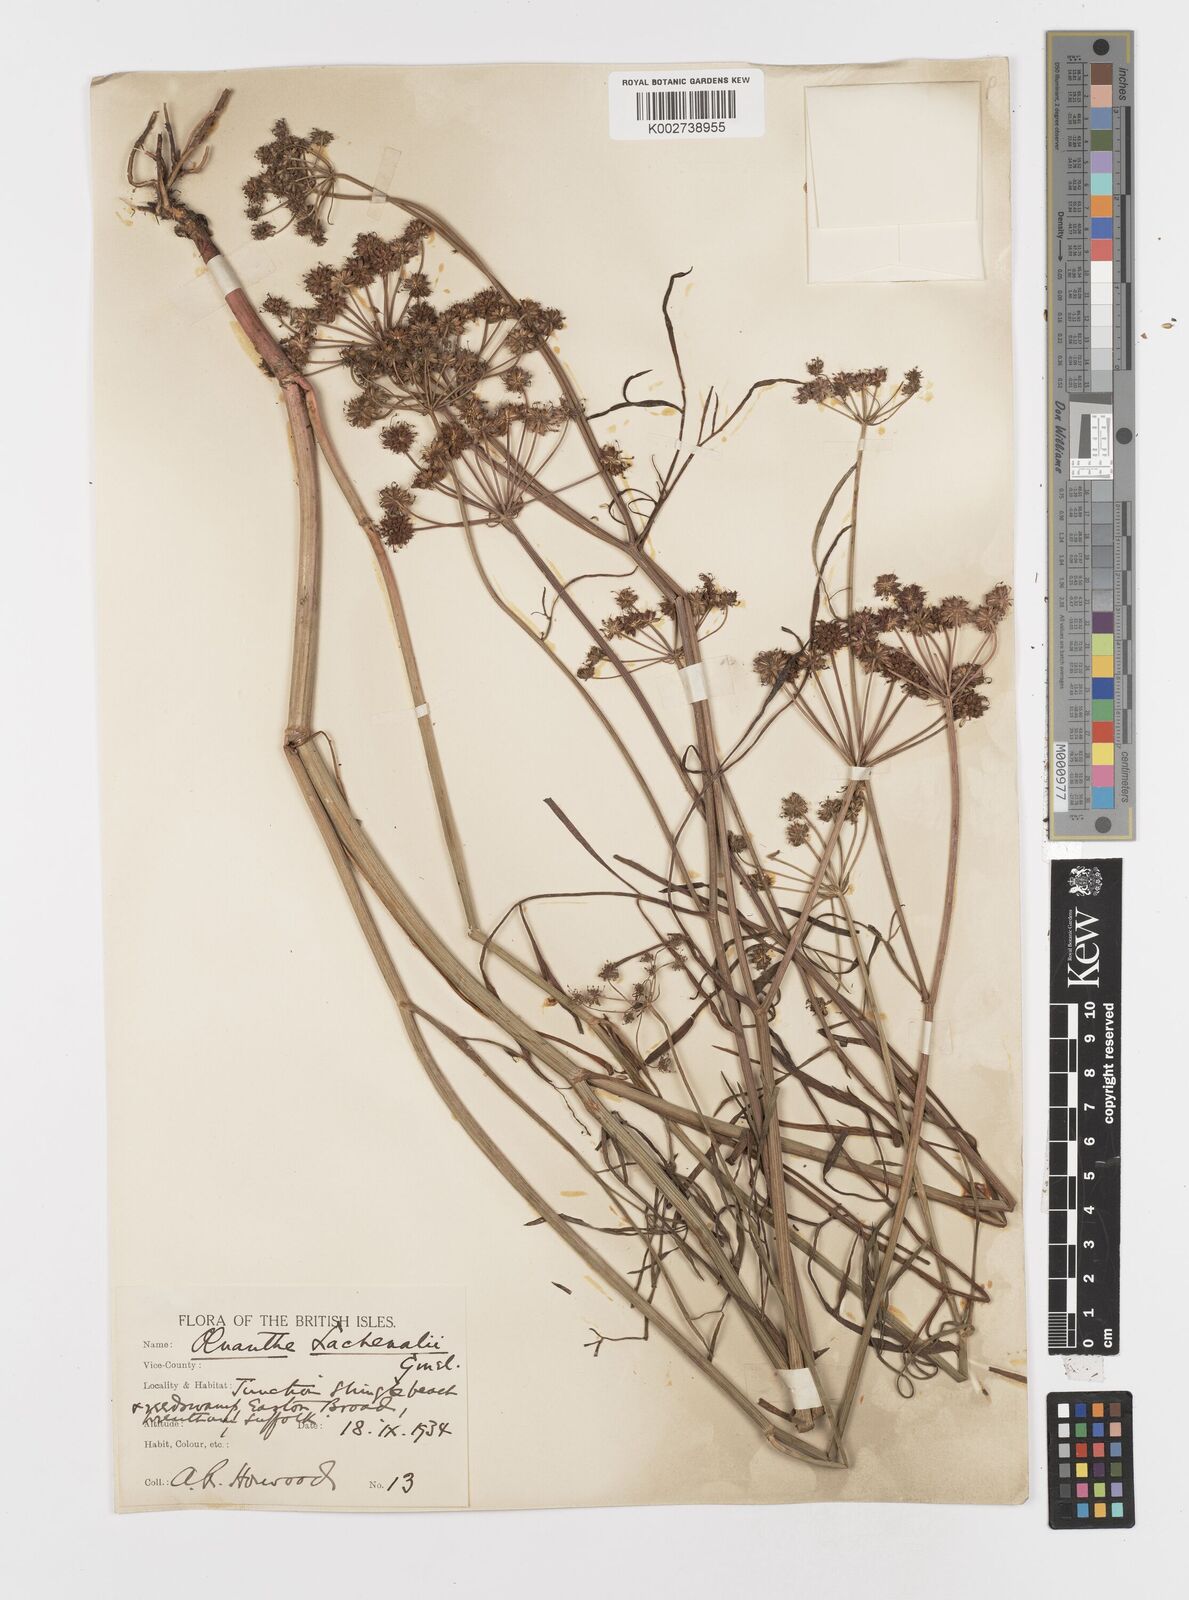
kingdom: Plantae
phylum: Tracheophyta
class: Magnoliopsida
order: Apiales
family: Apiaceae
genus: Oenanthe
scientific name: Oenanthe lachenalii
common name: Parsley water-dropwort
